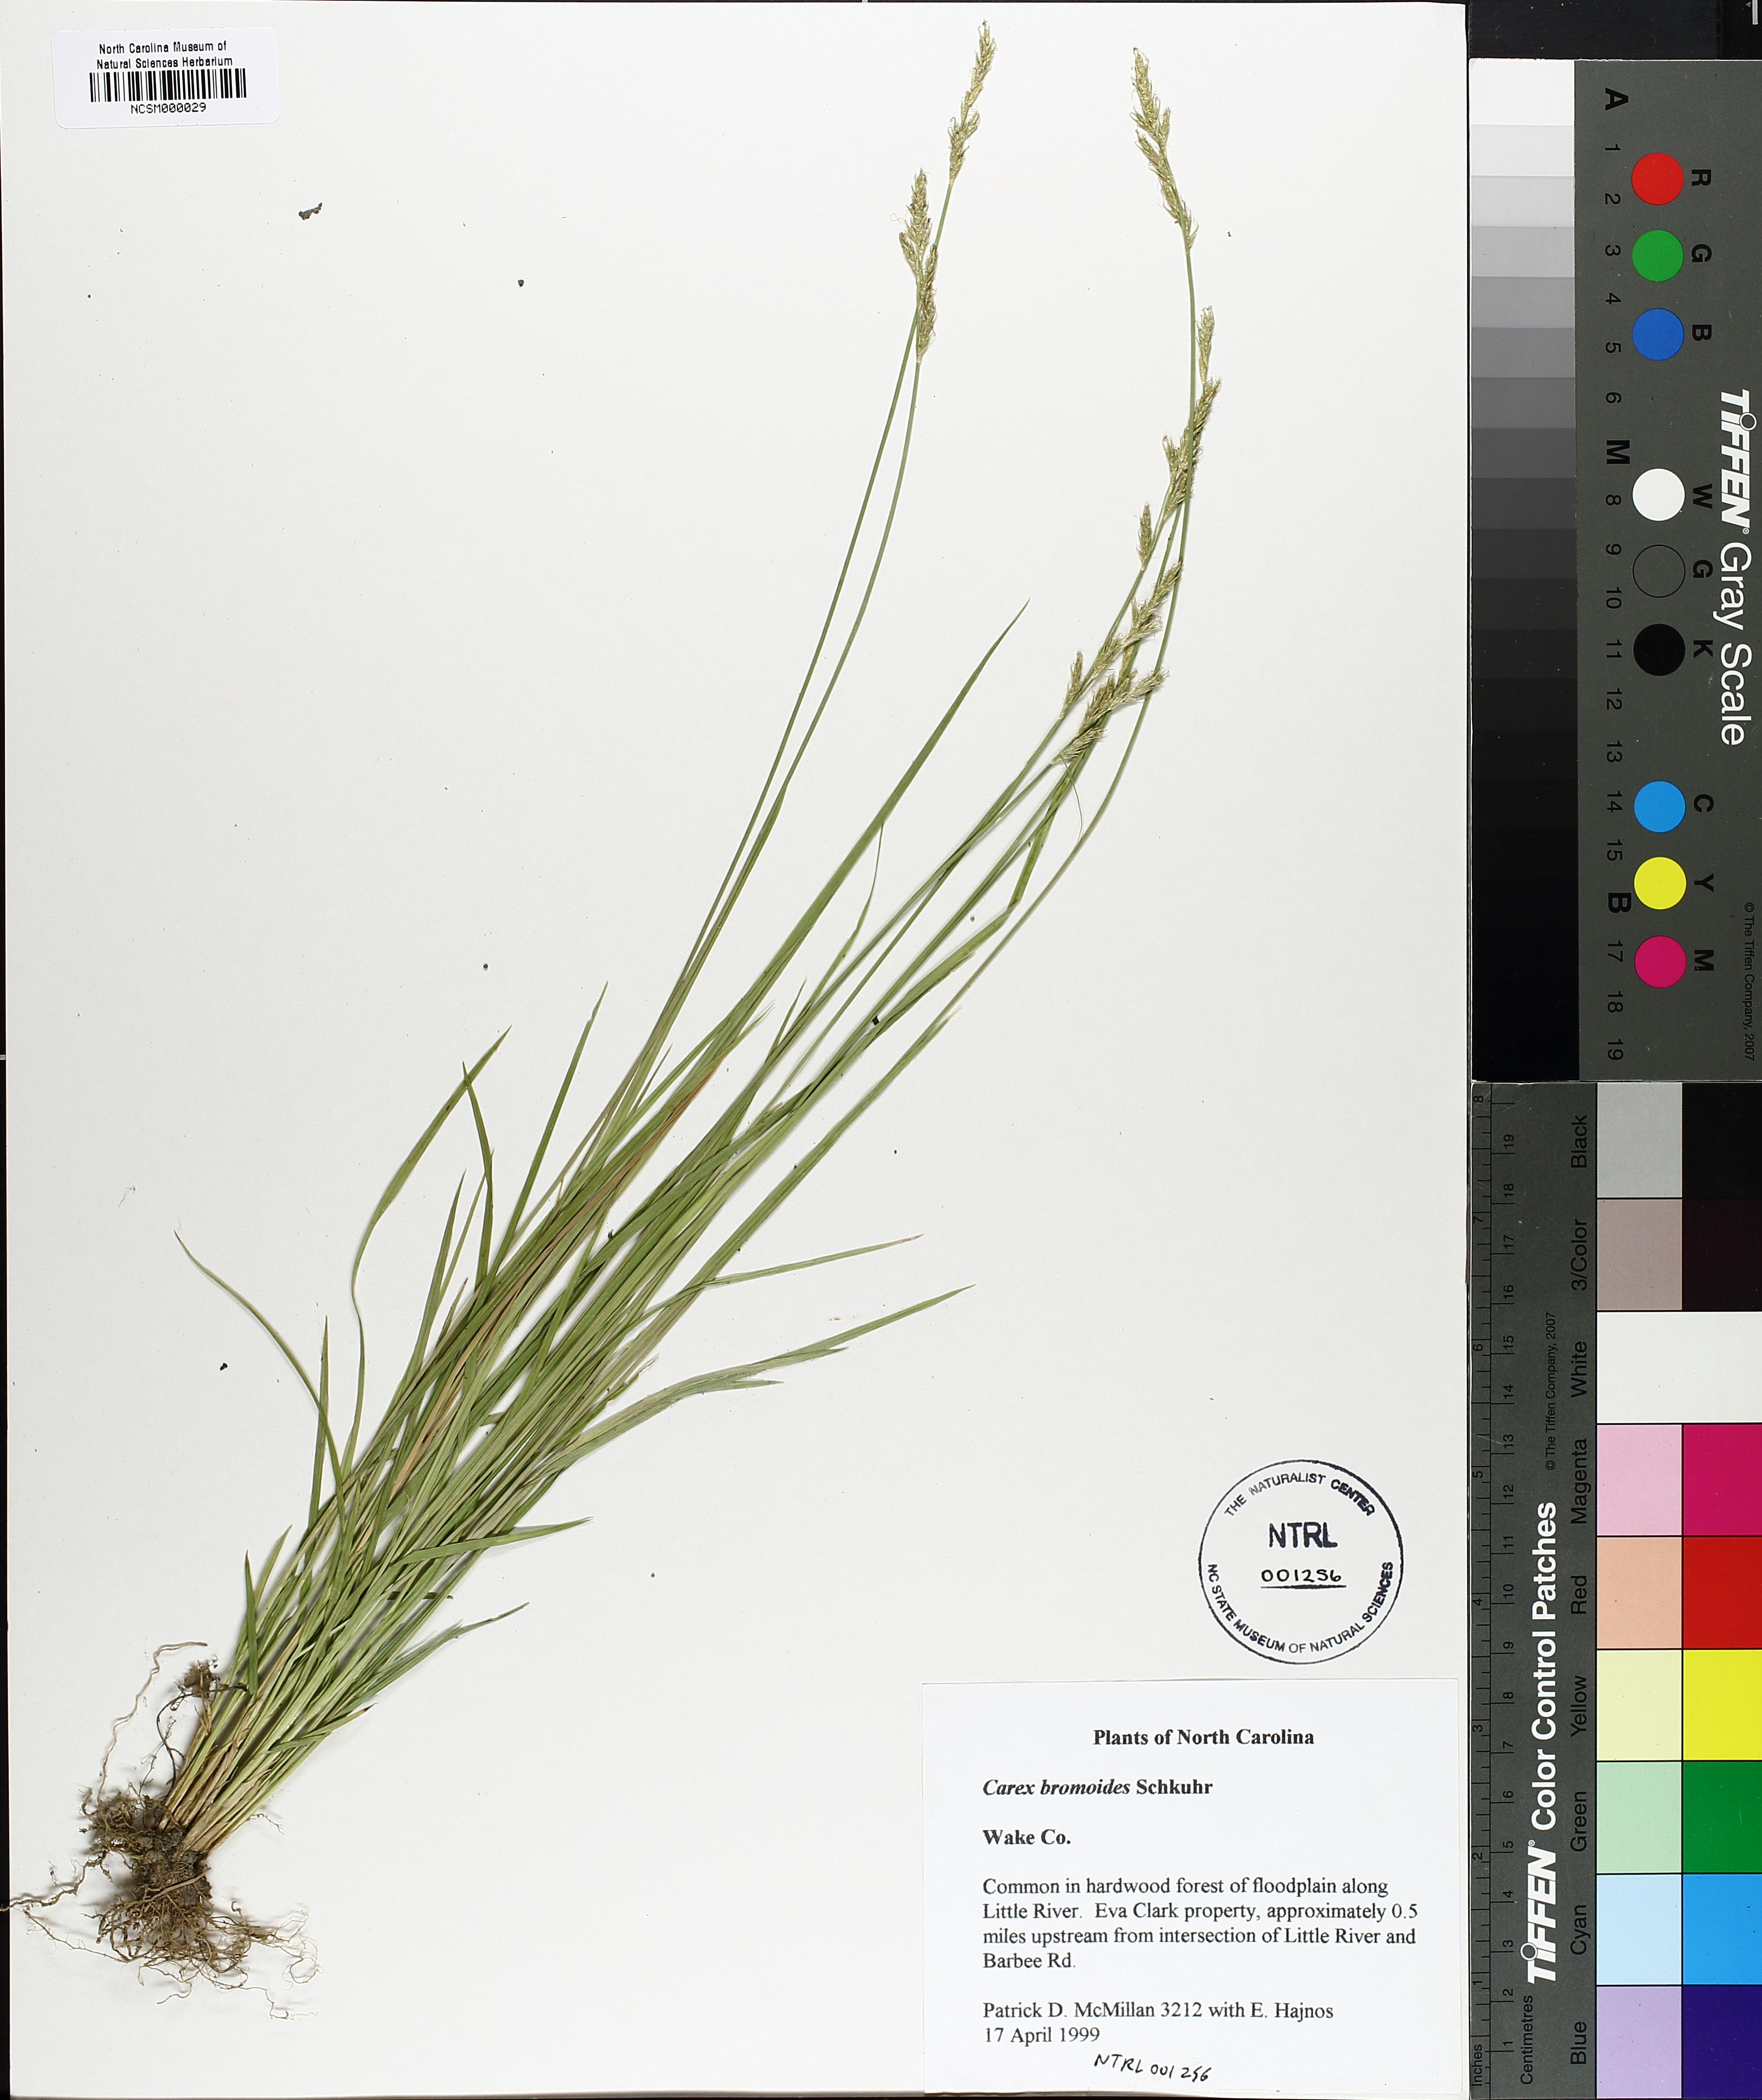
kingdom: Plantae
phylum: Tracheophyta
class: Liliopsida
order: Poales
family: Cyperaceae
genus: Carex
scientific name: Carex bromoides
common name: Brome hummock sedge
